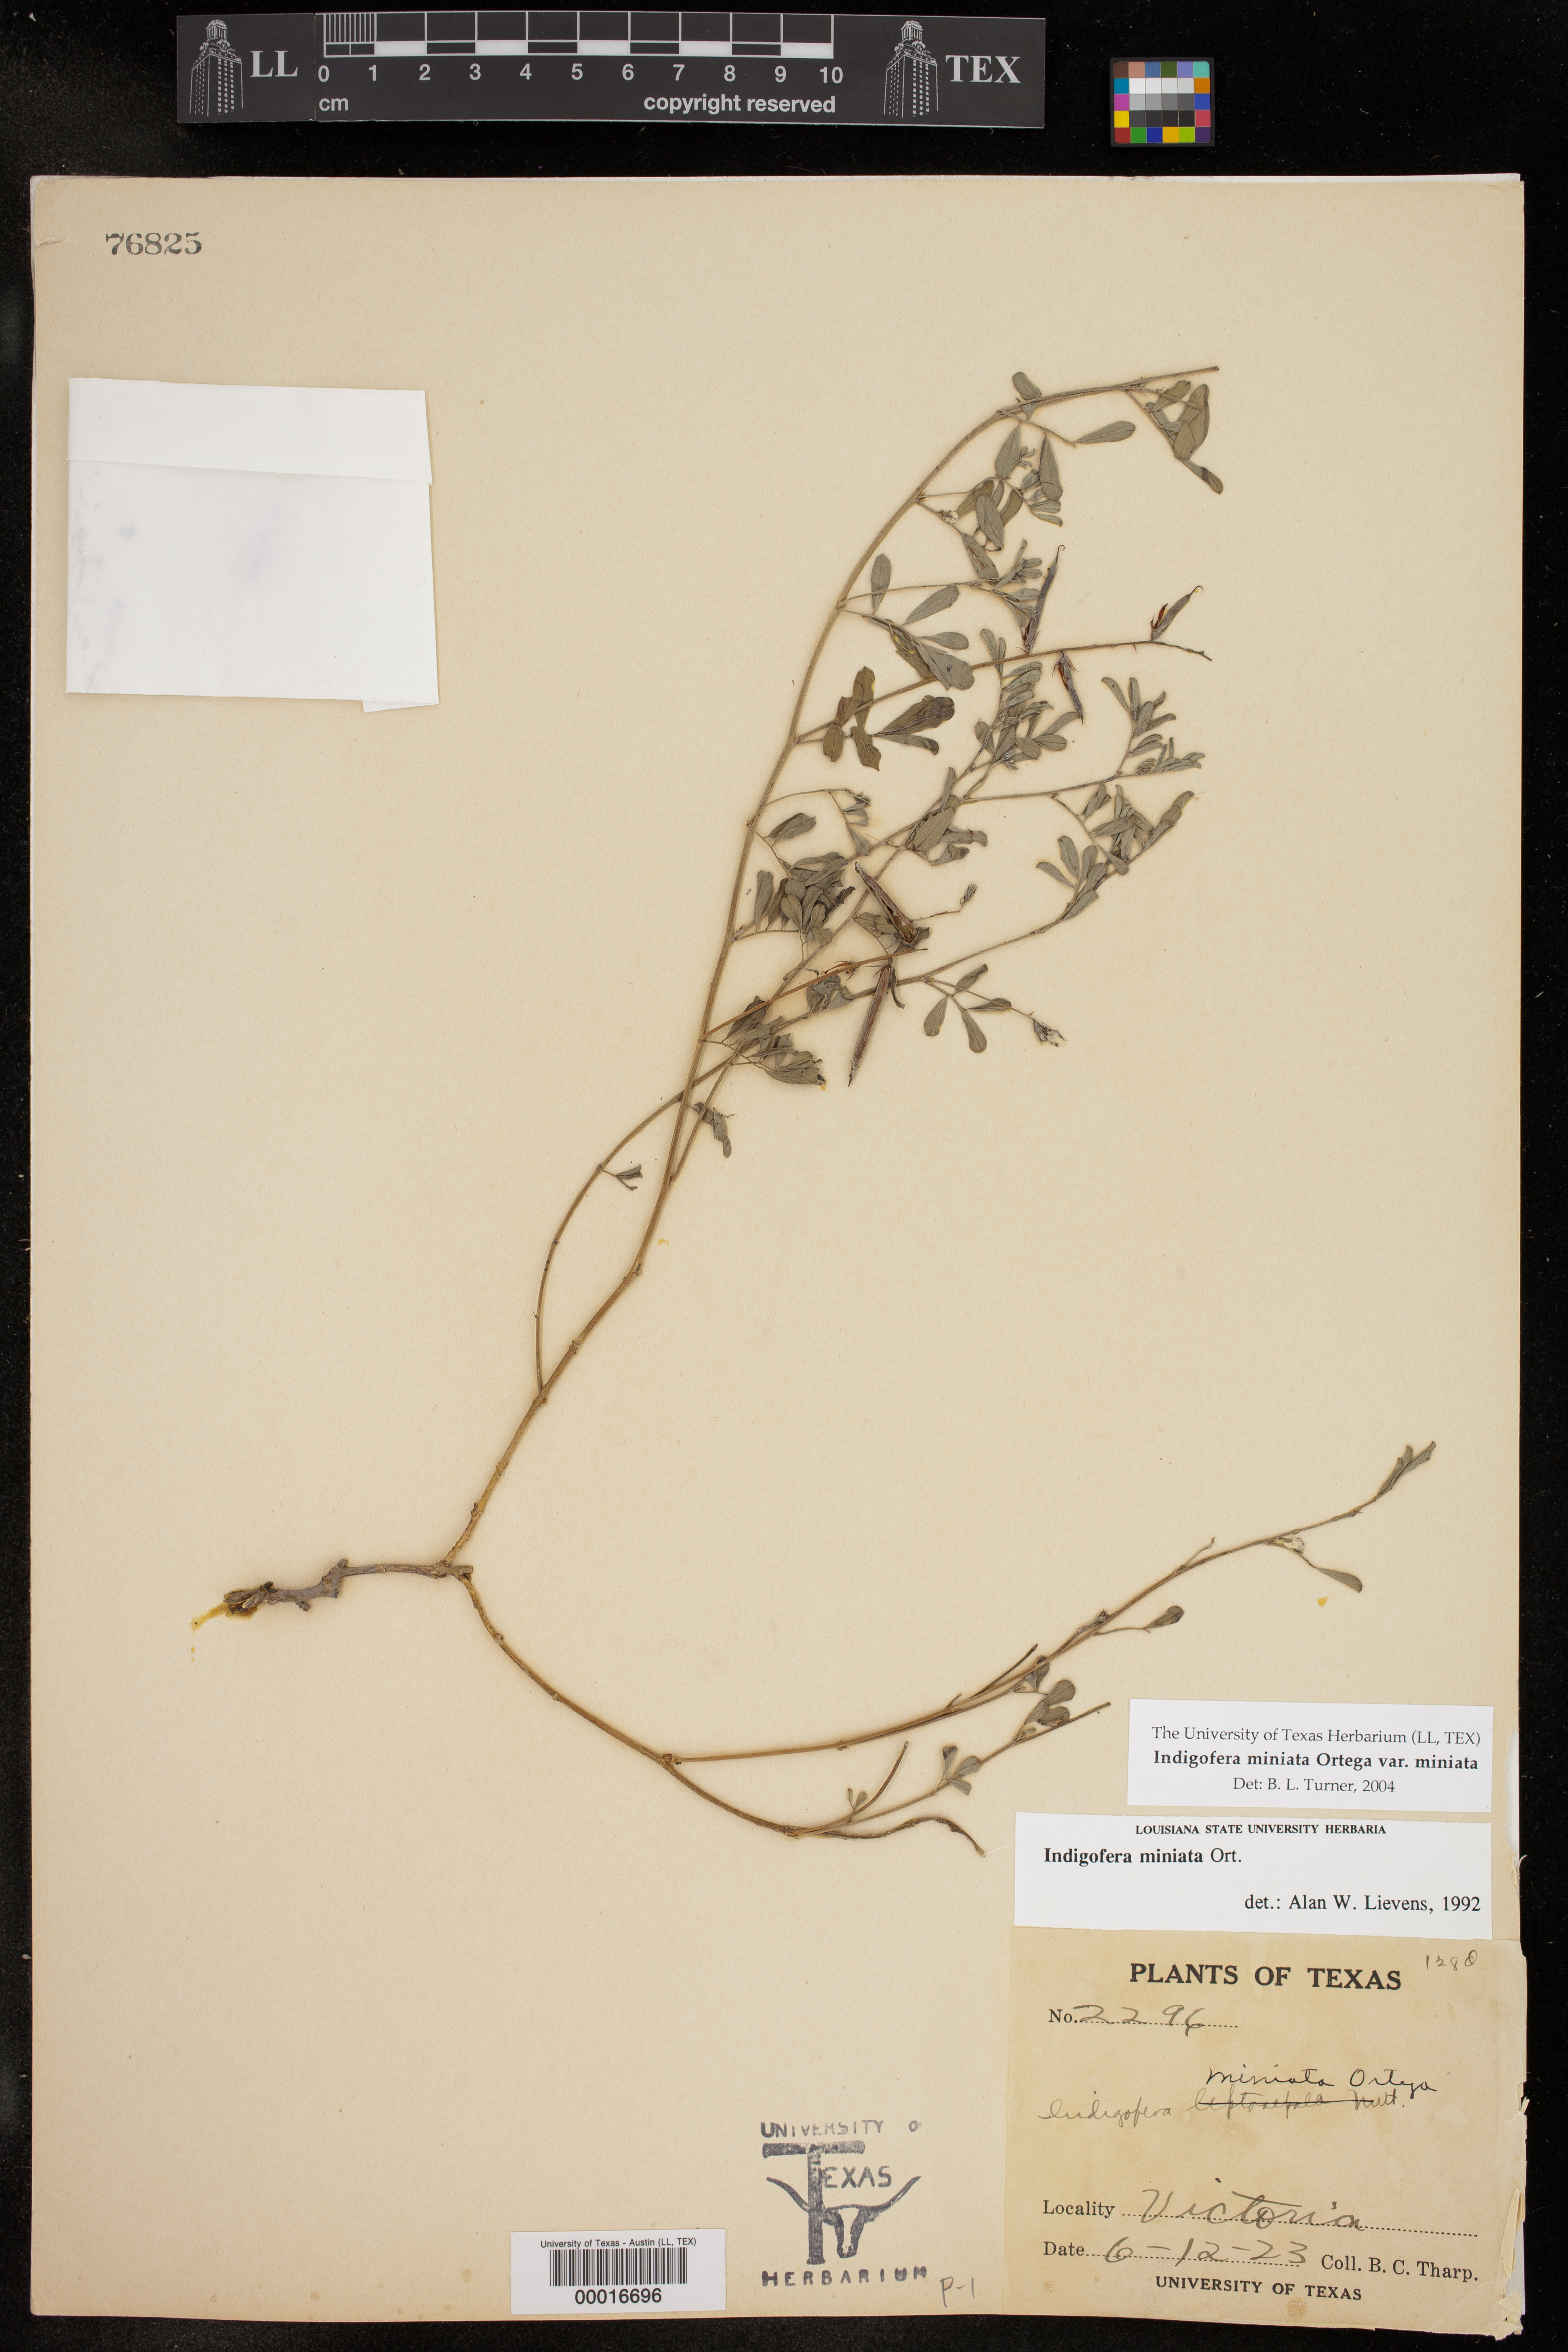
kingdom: Plantae
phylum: Tracheophyta
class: Magnoliopsida
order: Fabales
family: Fabaceae
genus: Indigofera
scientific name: Indigofera miniata
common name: Coast indigo
